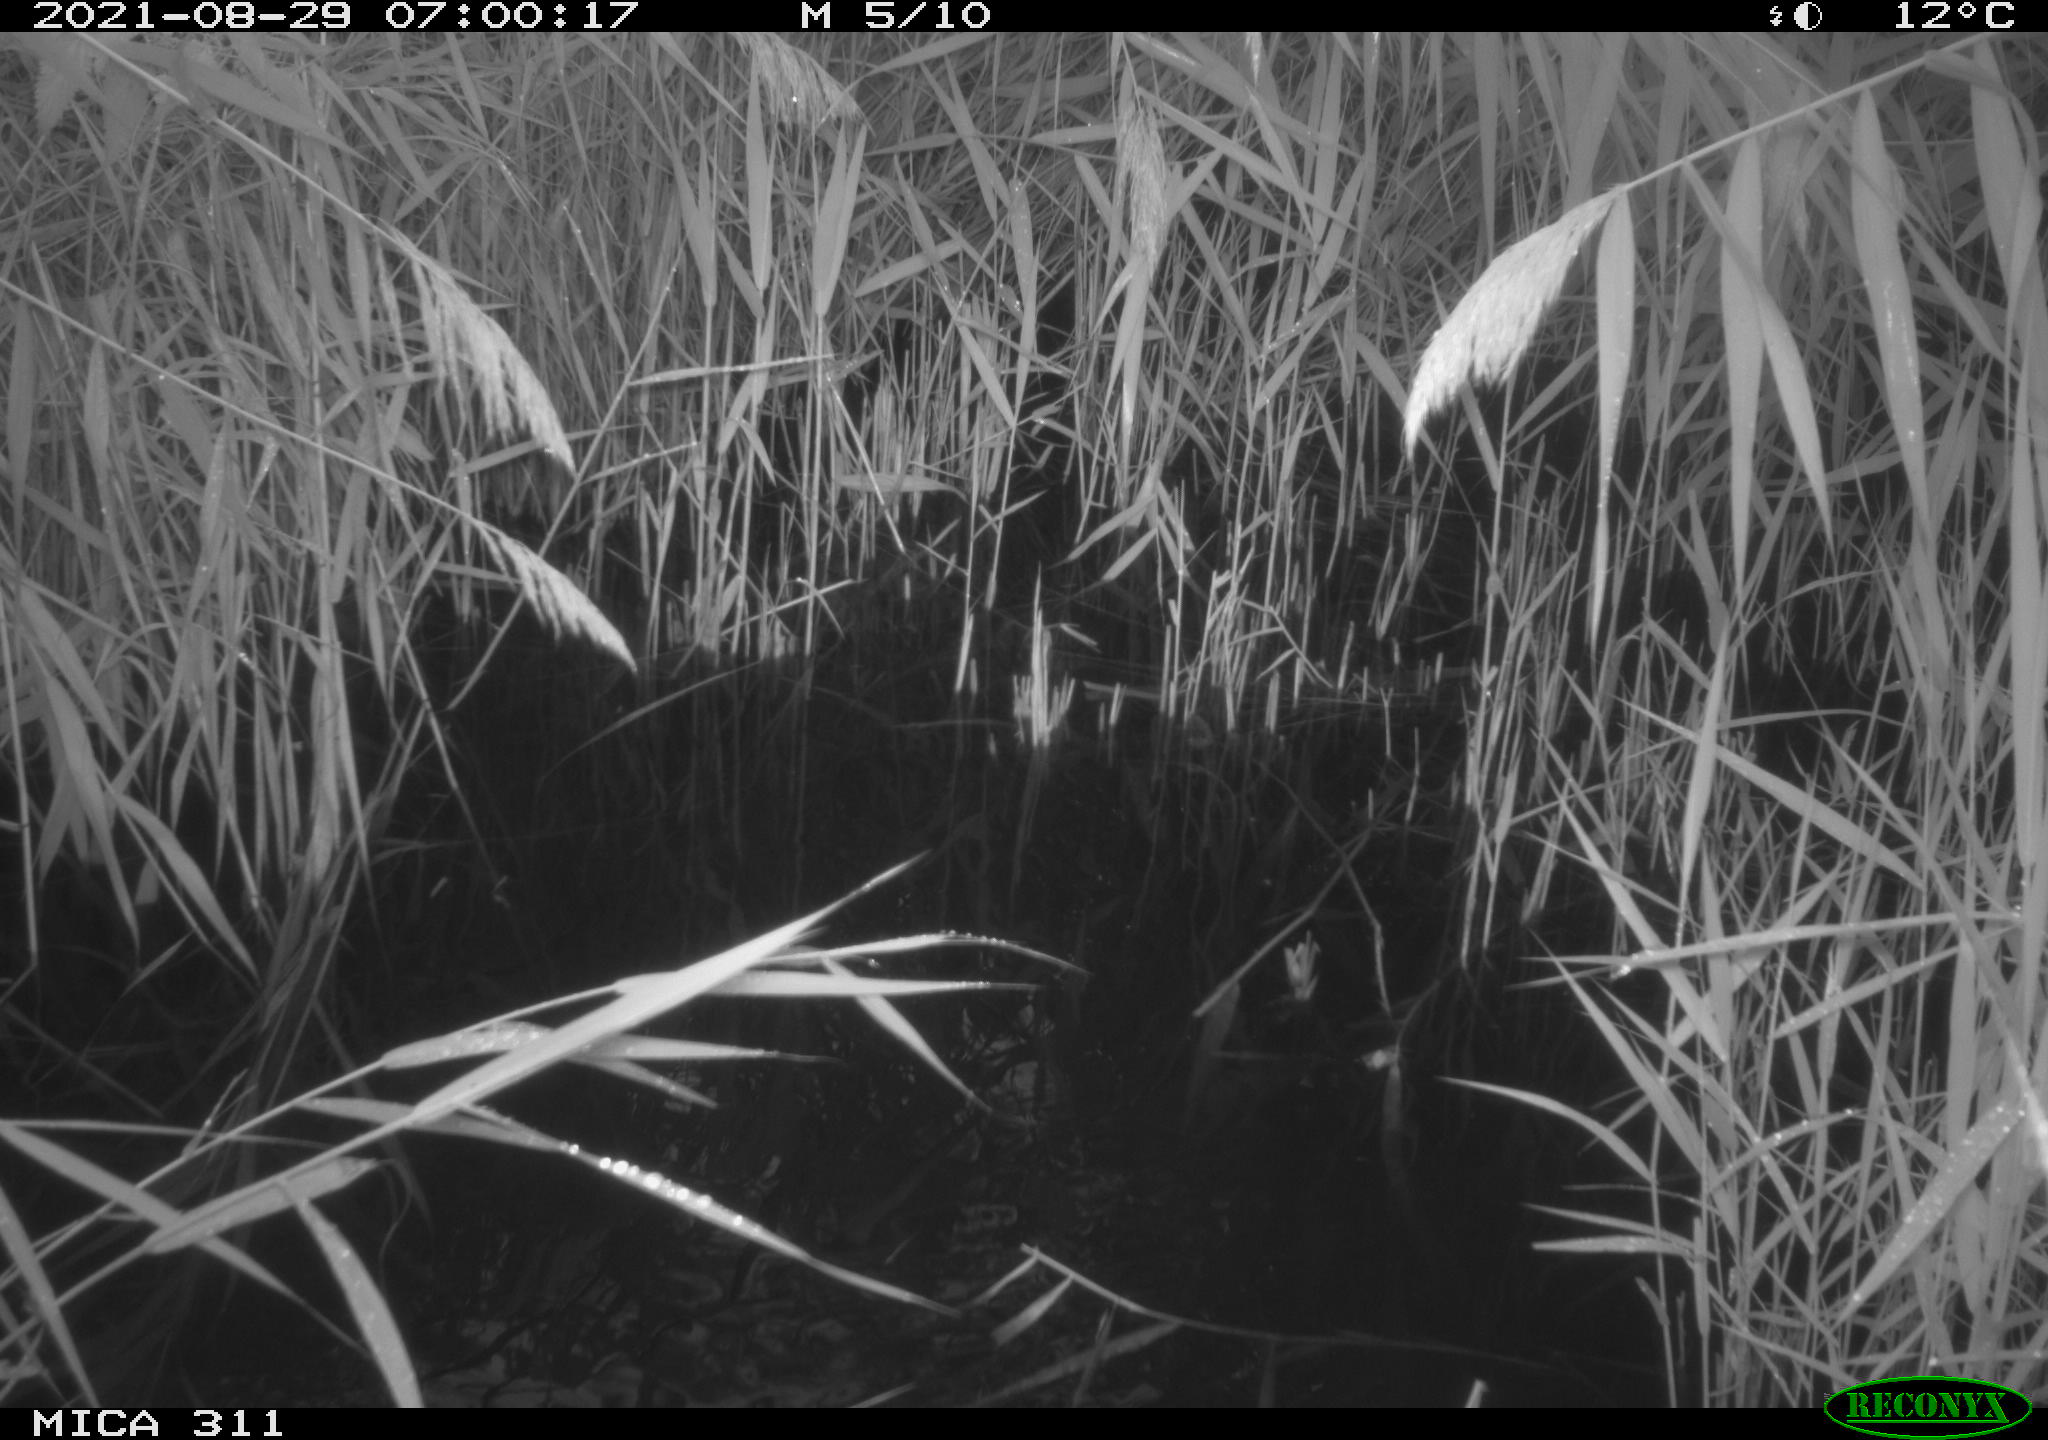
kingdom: Animalia
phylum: Chordata
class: Mammalia
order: Rodentia
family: Muridae
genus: Rattus
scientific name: Rattus norvegicus
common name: Brown rat
